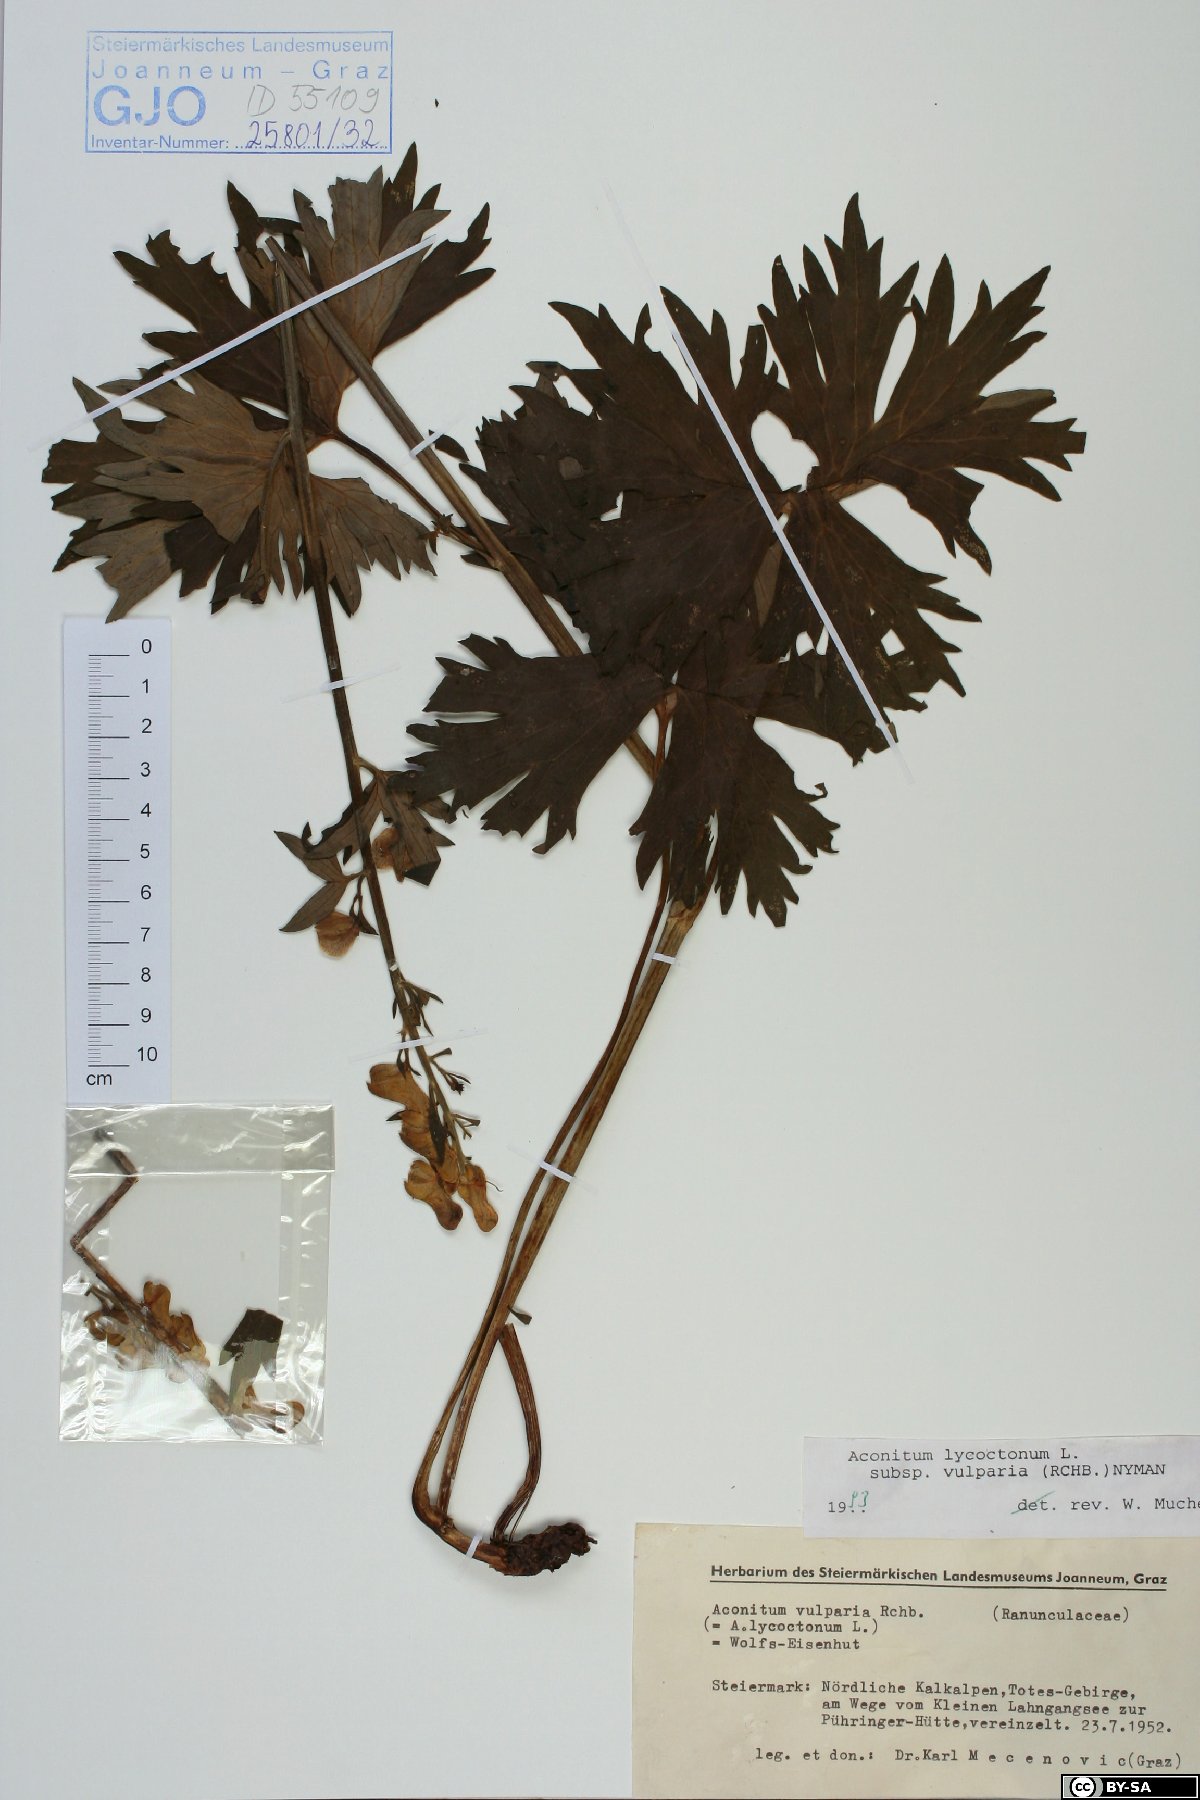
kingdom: Plantae
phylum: Tracheophyta
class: Magnoliopsida
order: Ranunculales
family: Ranunculaceae
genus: Aconitum
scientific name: Aconitum lycoctonum
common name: Wolf's-bane
